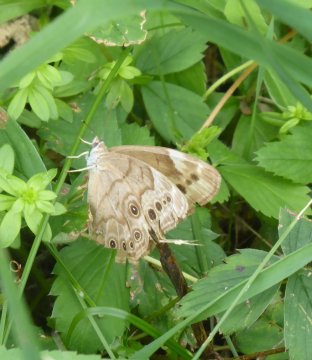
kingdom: Animalia
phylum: Arthropoda
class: Insecta
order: Lepidoptera
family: Nymphalidae
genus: Lethe
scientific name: Lethe anthedon
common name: Northern Pearly-Eye
